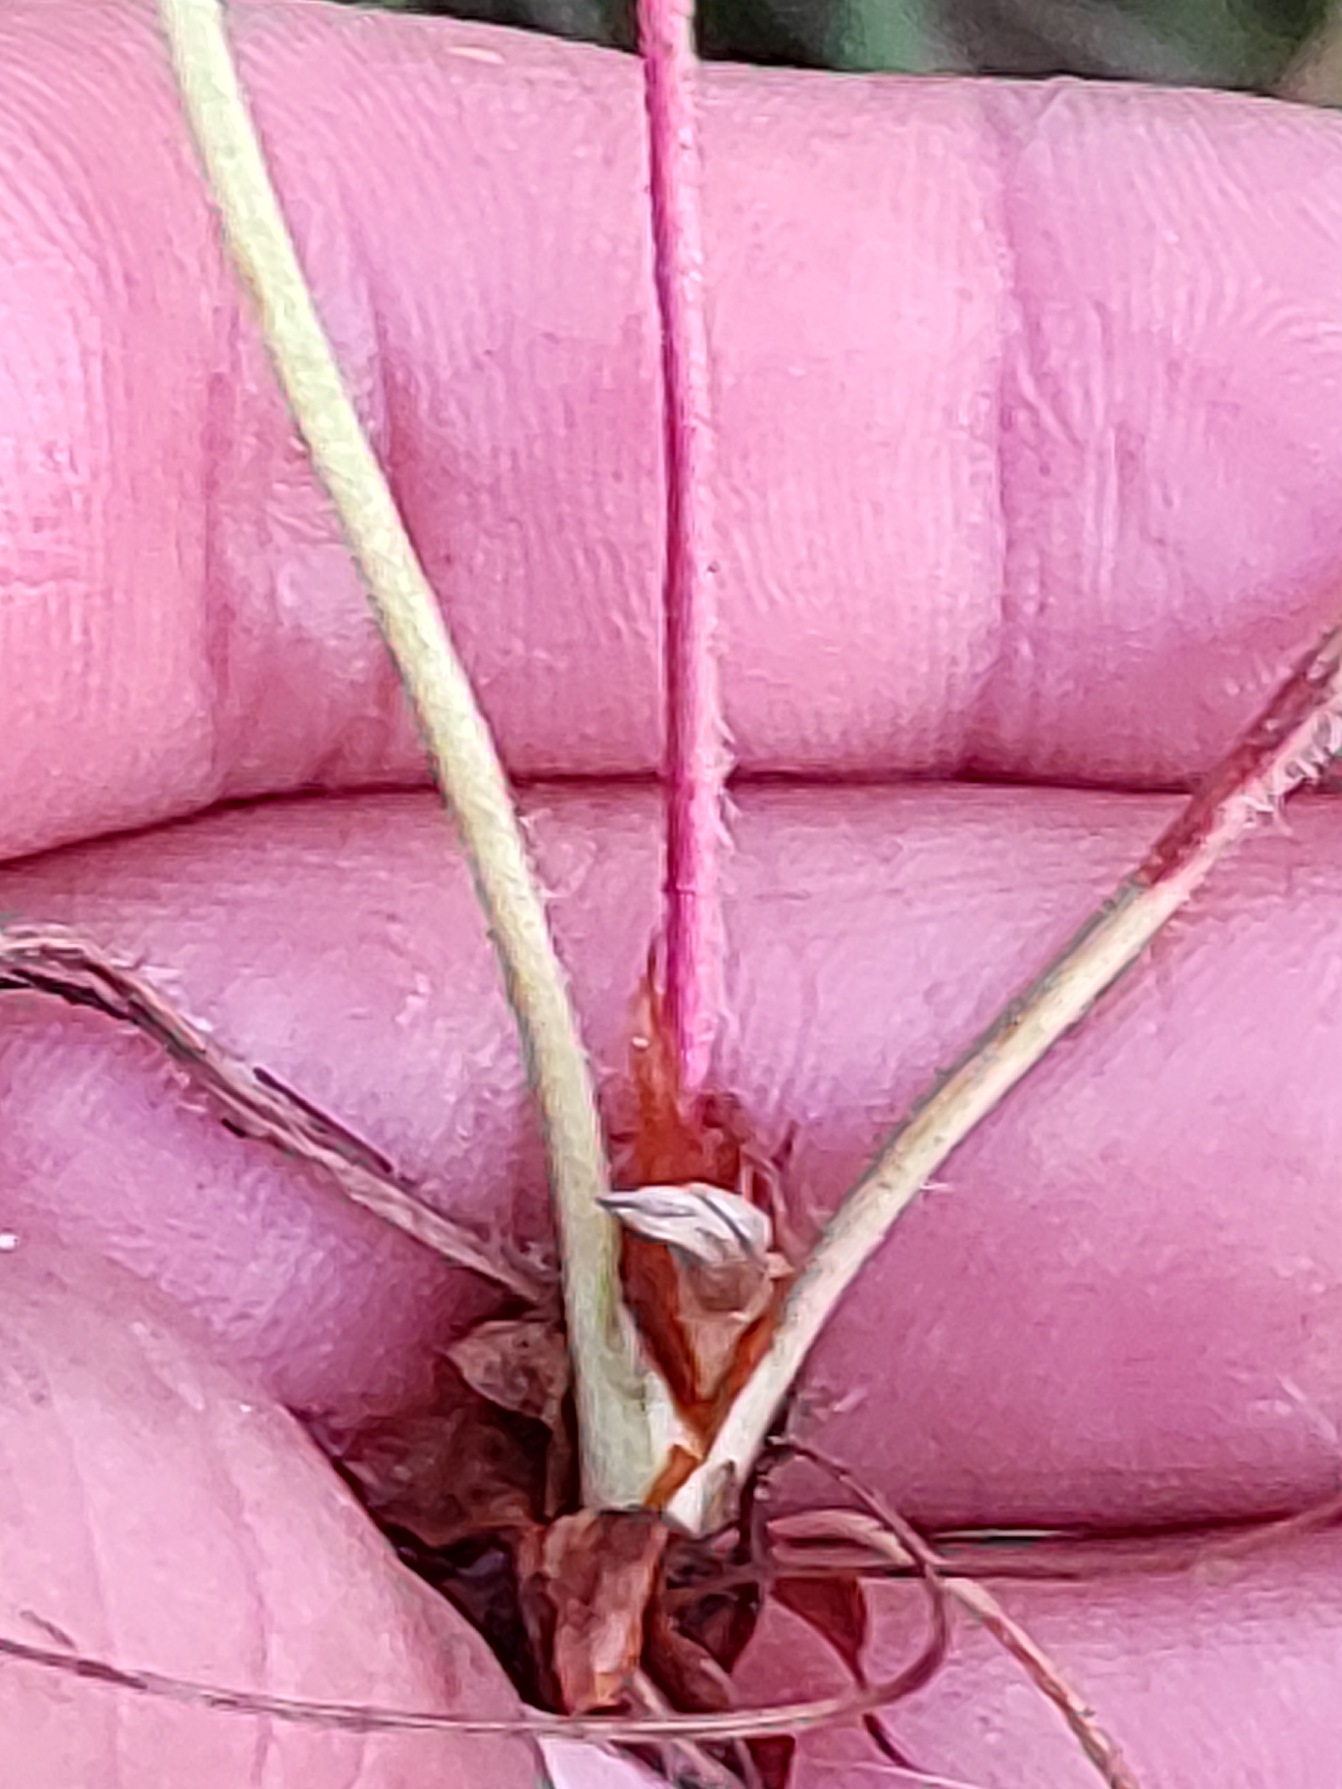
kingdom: Plantae
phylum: Tracheophyta
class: Magnoliopsida
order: Rosales
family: Rosaceae
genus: Fragaria
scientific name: Fragaria vesca
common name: Skov-jordbær
